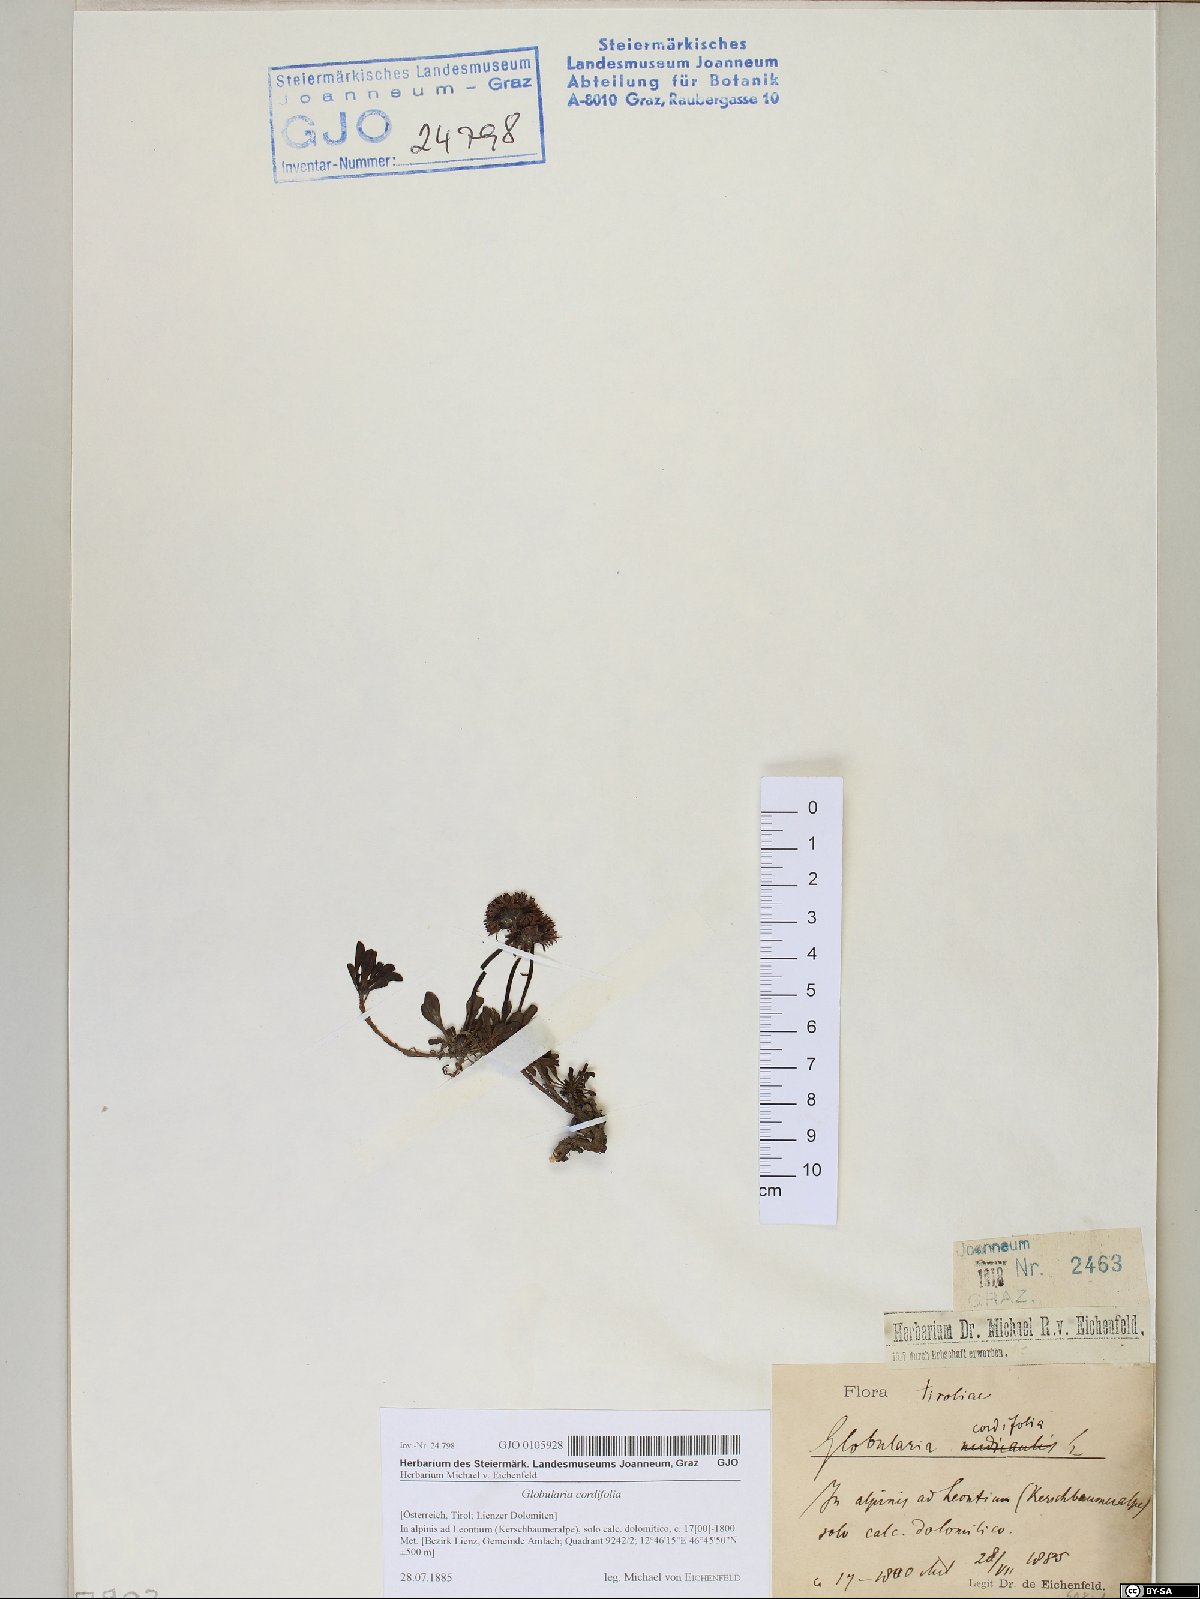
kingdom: Plantae
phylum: Tracheophyta
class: Magnoliopsida
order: Lamiales
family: Plantaginaceae
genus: Globularia
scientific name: Globularia cordifolia
